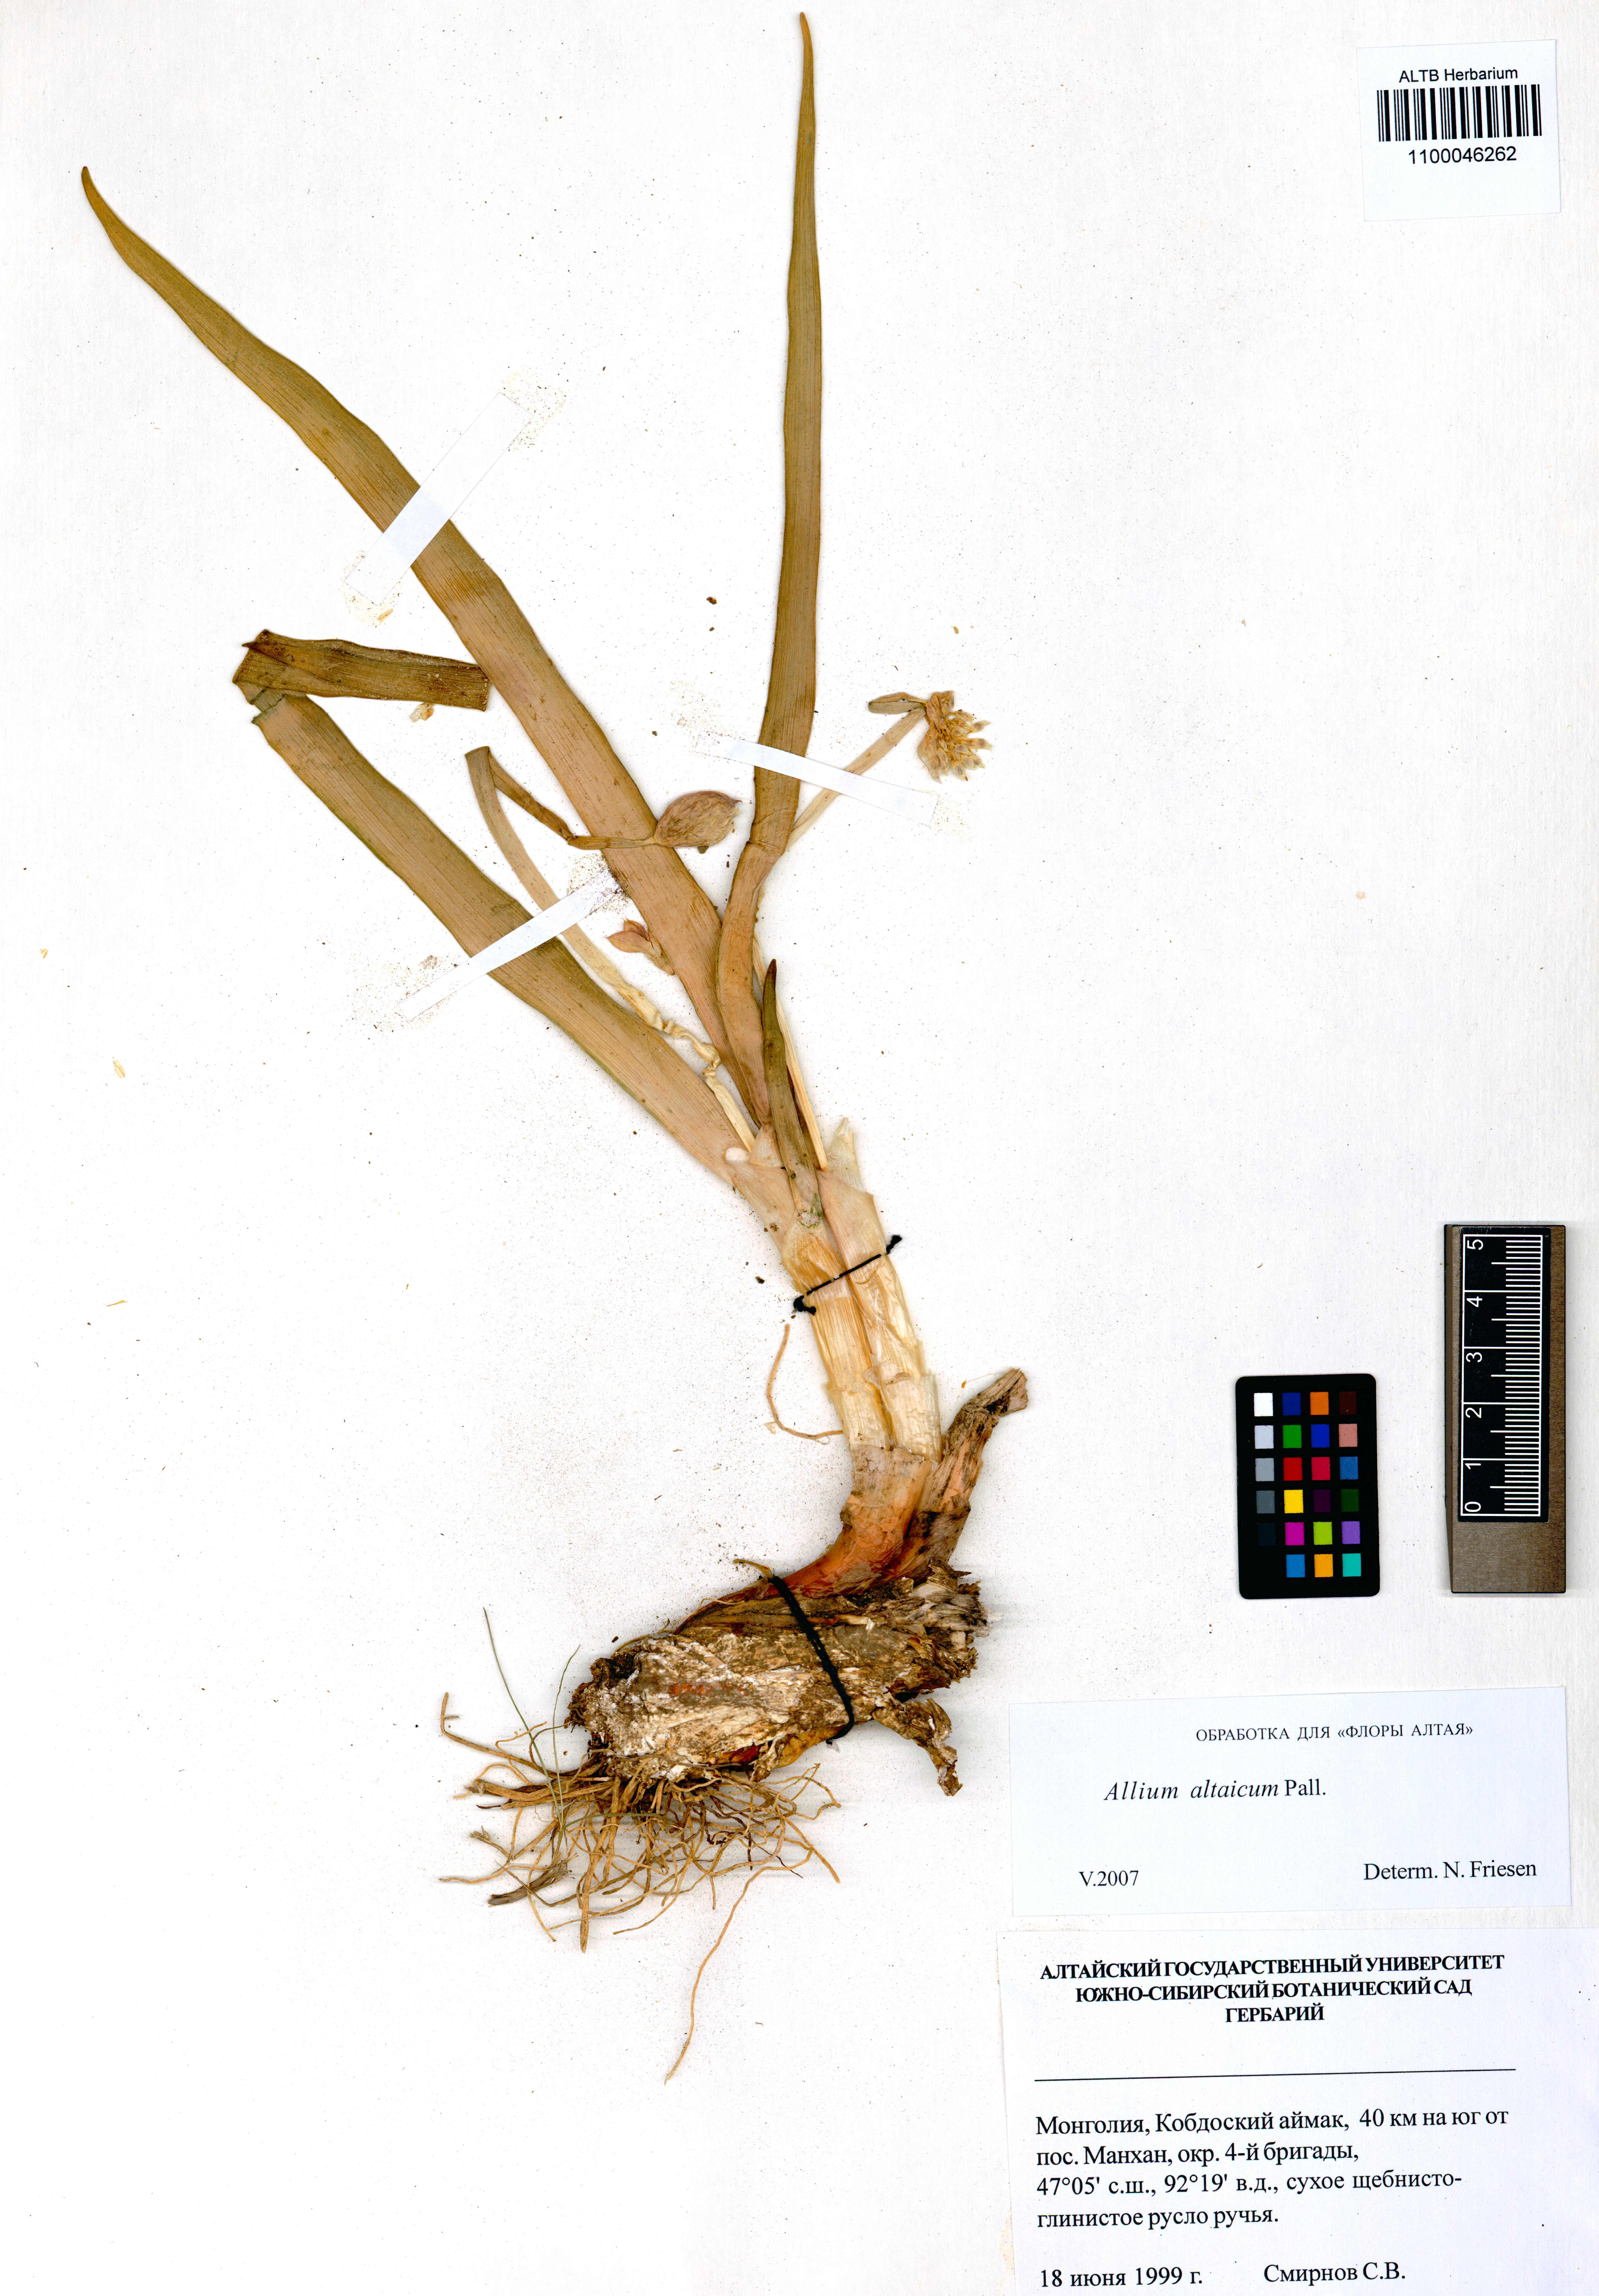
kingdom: Plantae
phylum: Tracheophyta
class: Liliopsida
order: Asparagales
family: Amaryllidaceae
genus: Allium
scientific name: Allium altaicum
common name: Altai onion
